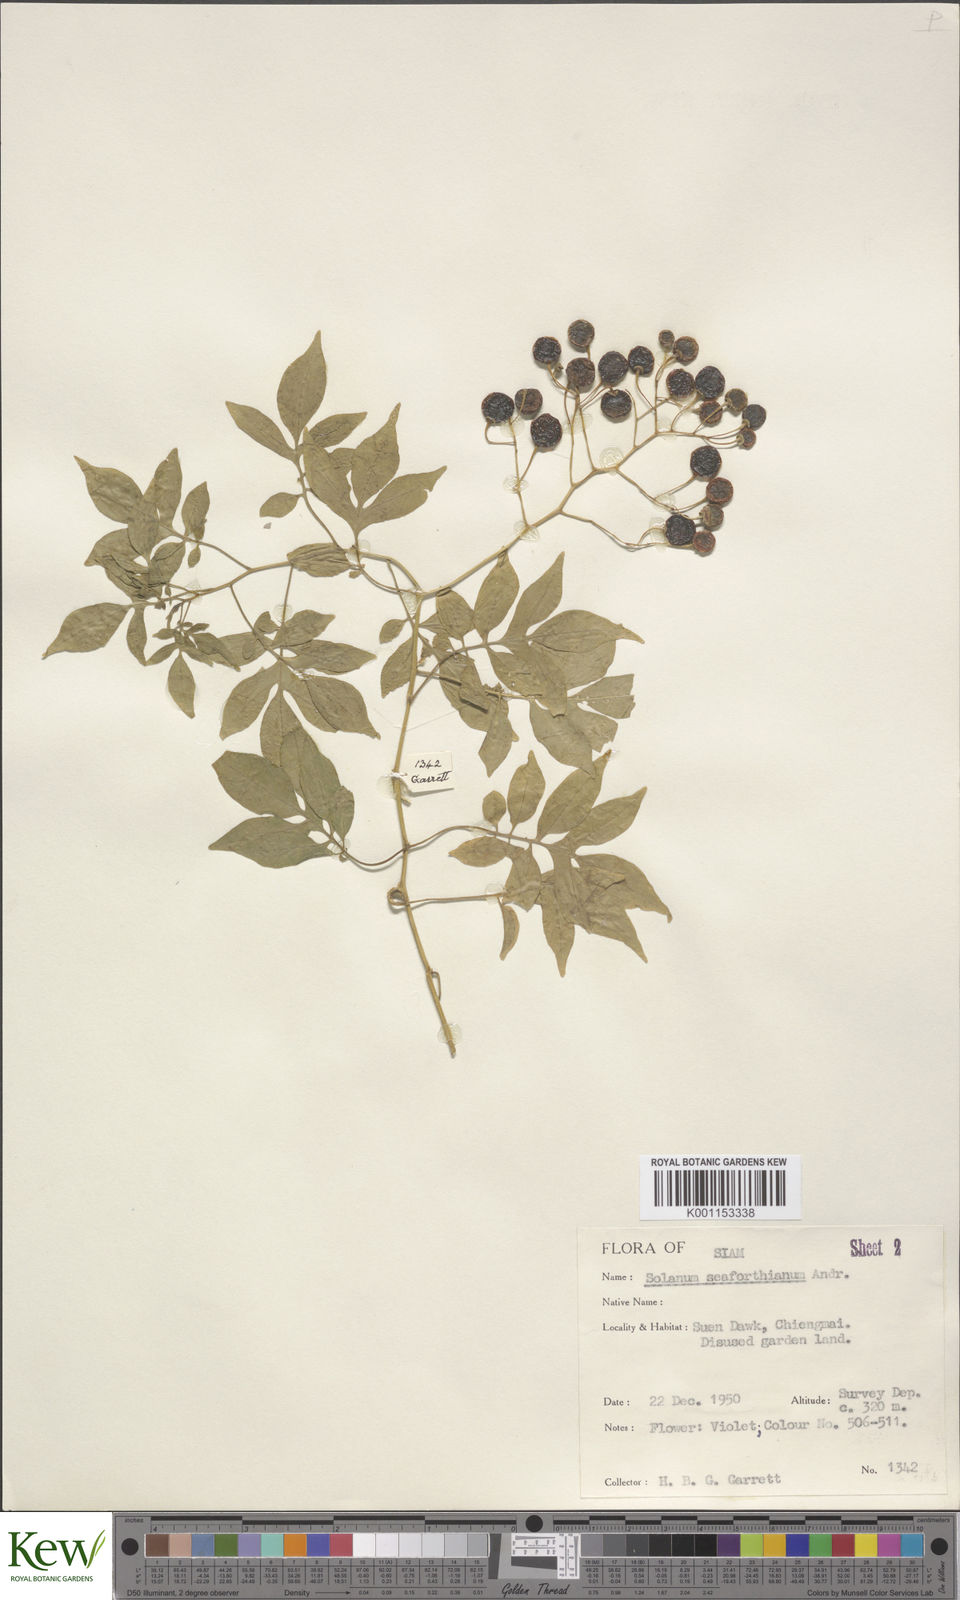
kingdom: Plantae
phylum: Tracheophyta
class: Magnoliopsida
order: Solanales
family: Solanaceae
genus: Solanum
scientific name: Solanum seaforthianum
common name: Brazilian nightshade
